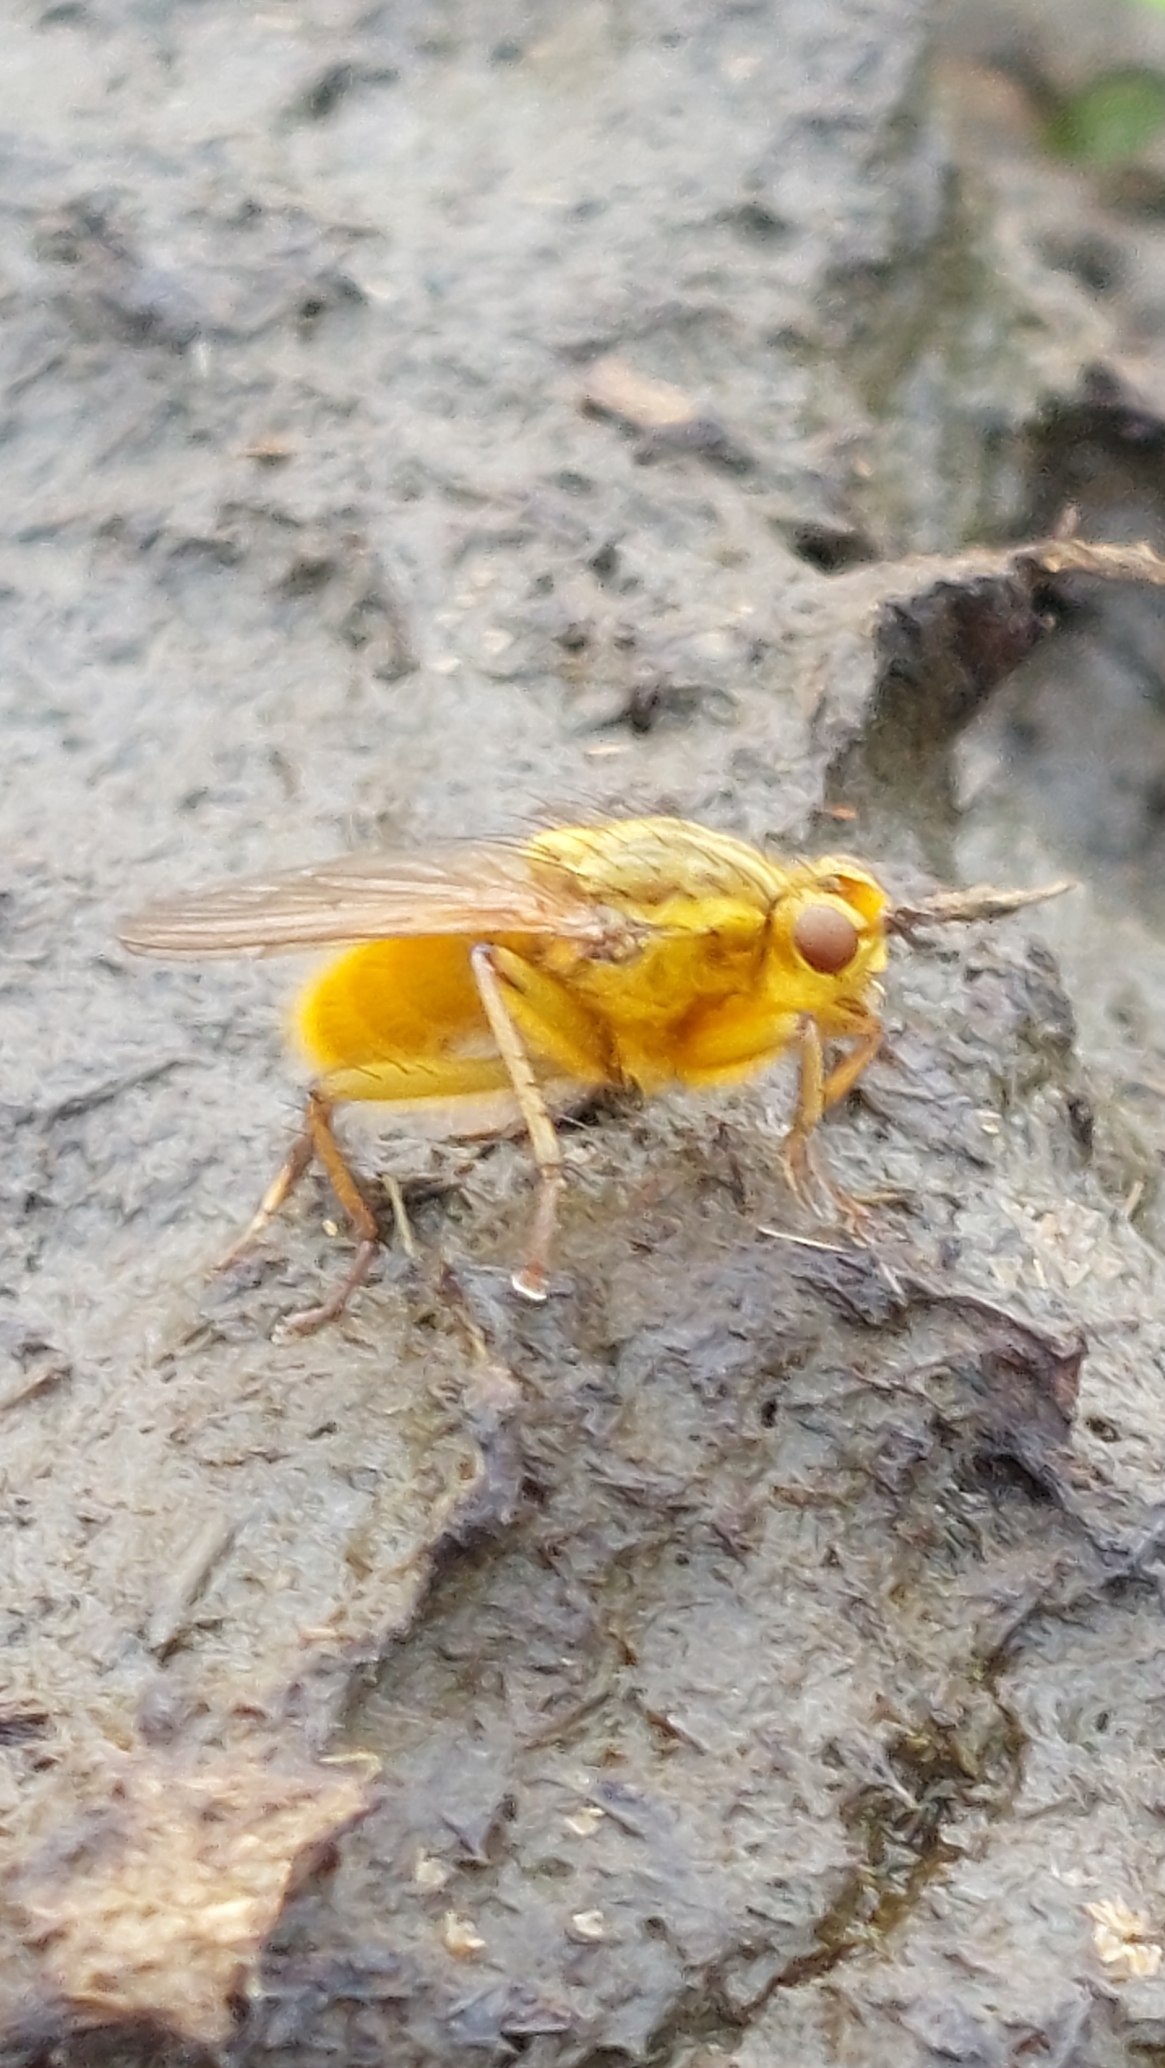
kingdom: Animalia
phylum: Arthropoda
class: Insecta
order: Diptera
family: Scathophagidae
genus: Scathophaga
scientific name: Scathophaga stercoraria
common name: Almindelig gødningsflue
